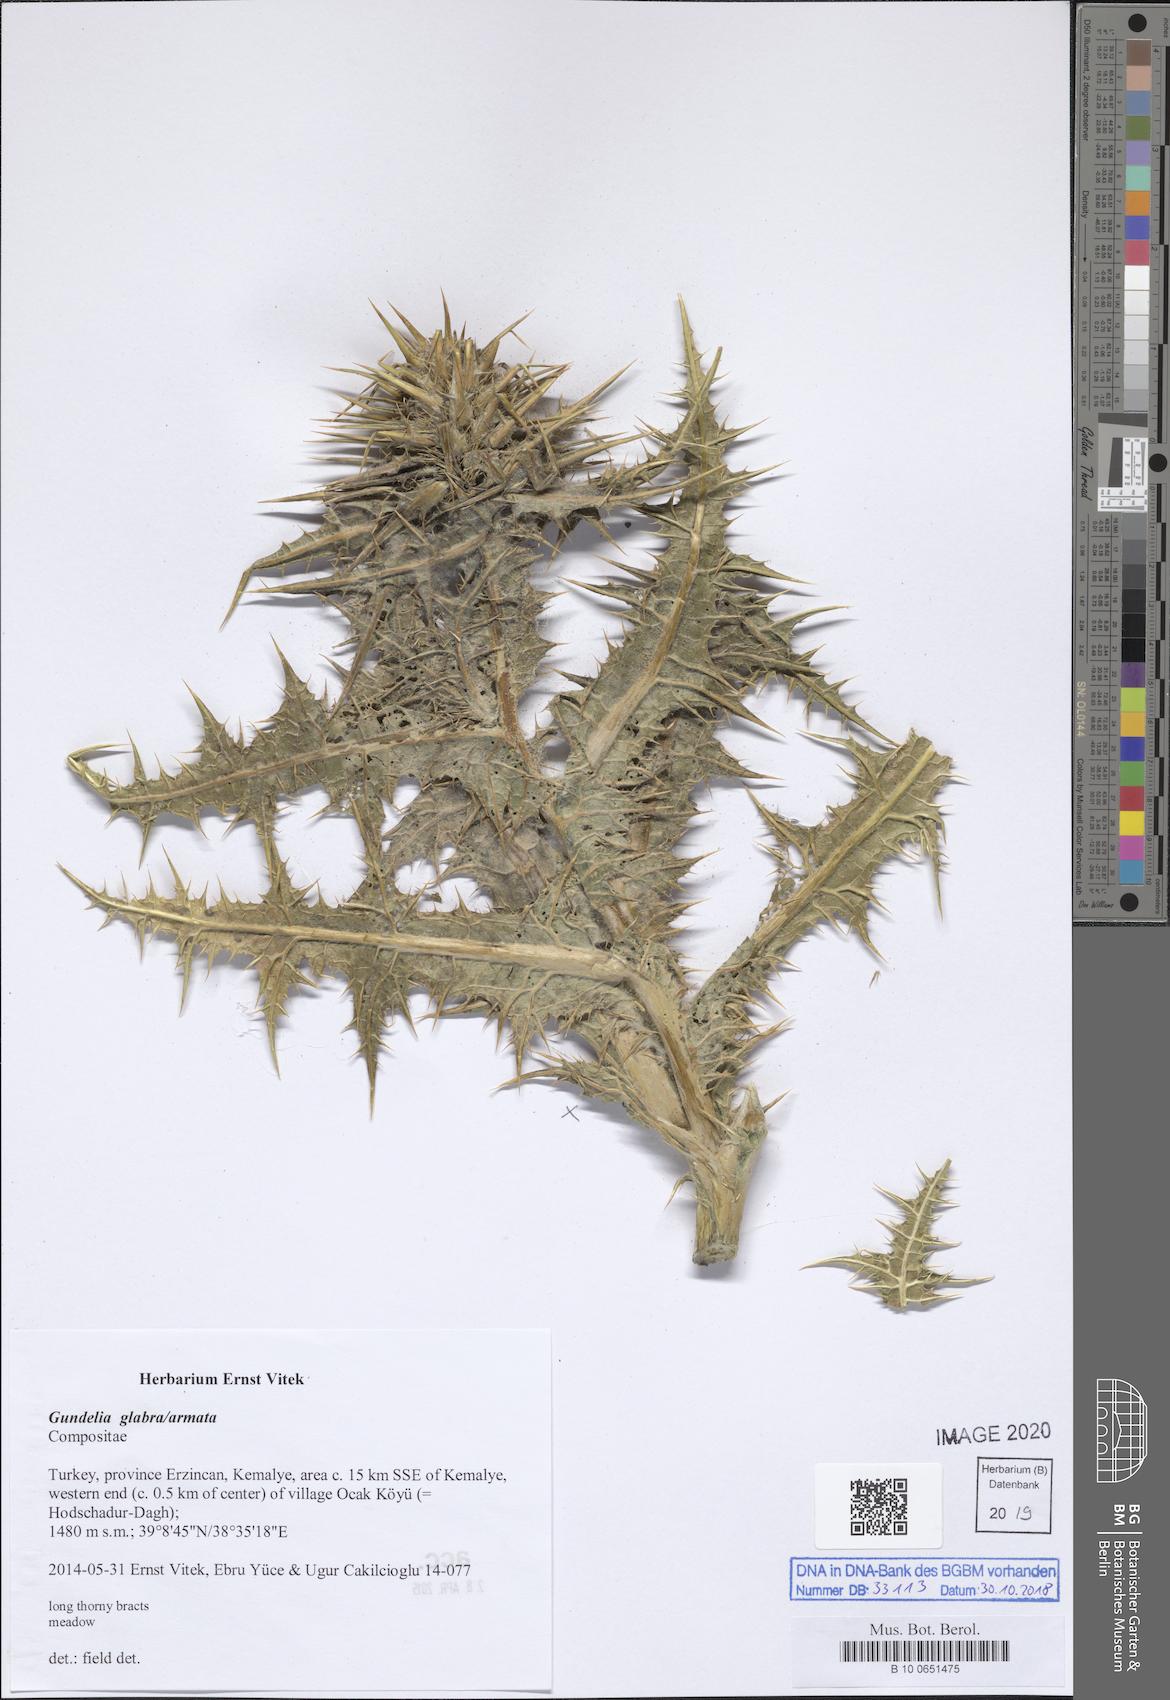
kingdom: Plantae
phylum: Tracheophyta
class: Magnoliopsida
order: Asterales
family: Asteraceae
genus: Gundelia
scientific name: Gundelia tournefortii
